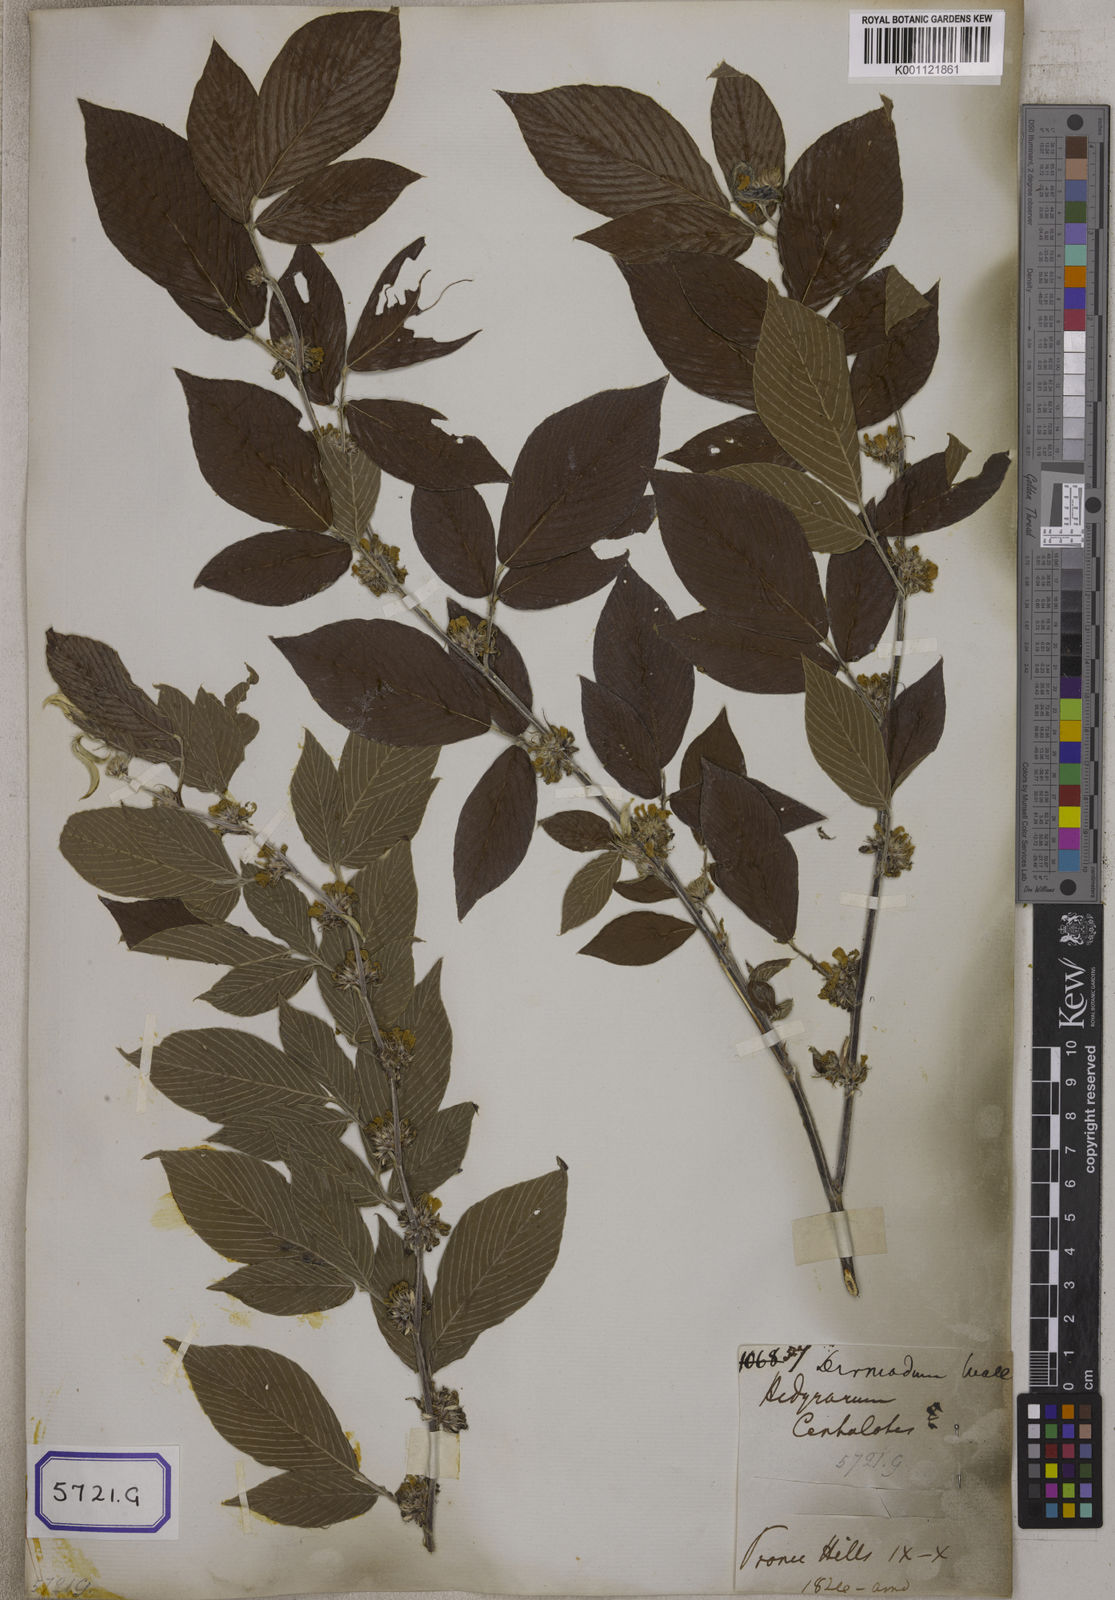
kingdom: Plantae
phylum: Tracheophyta
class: Magnoliopsida
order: Fabales
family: Fabaceae
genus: Desmodium
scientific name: Desmodium
